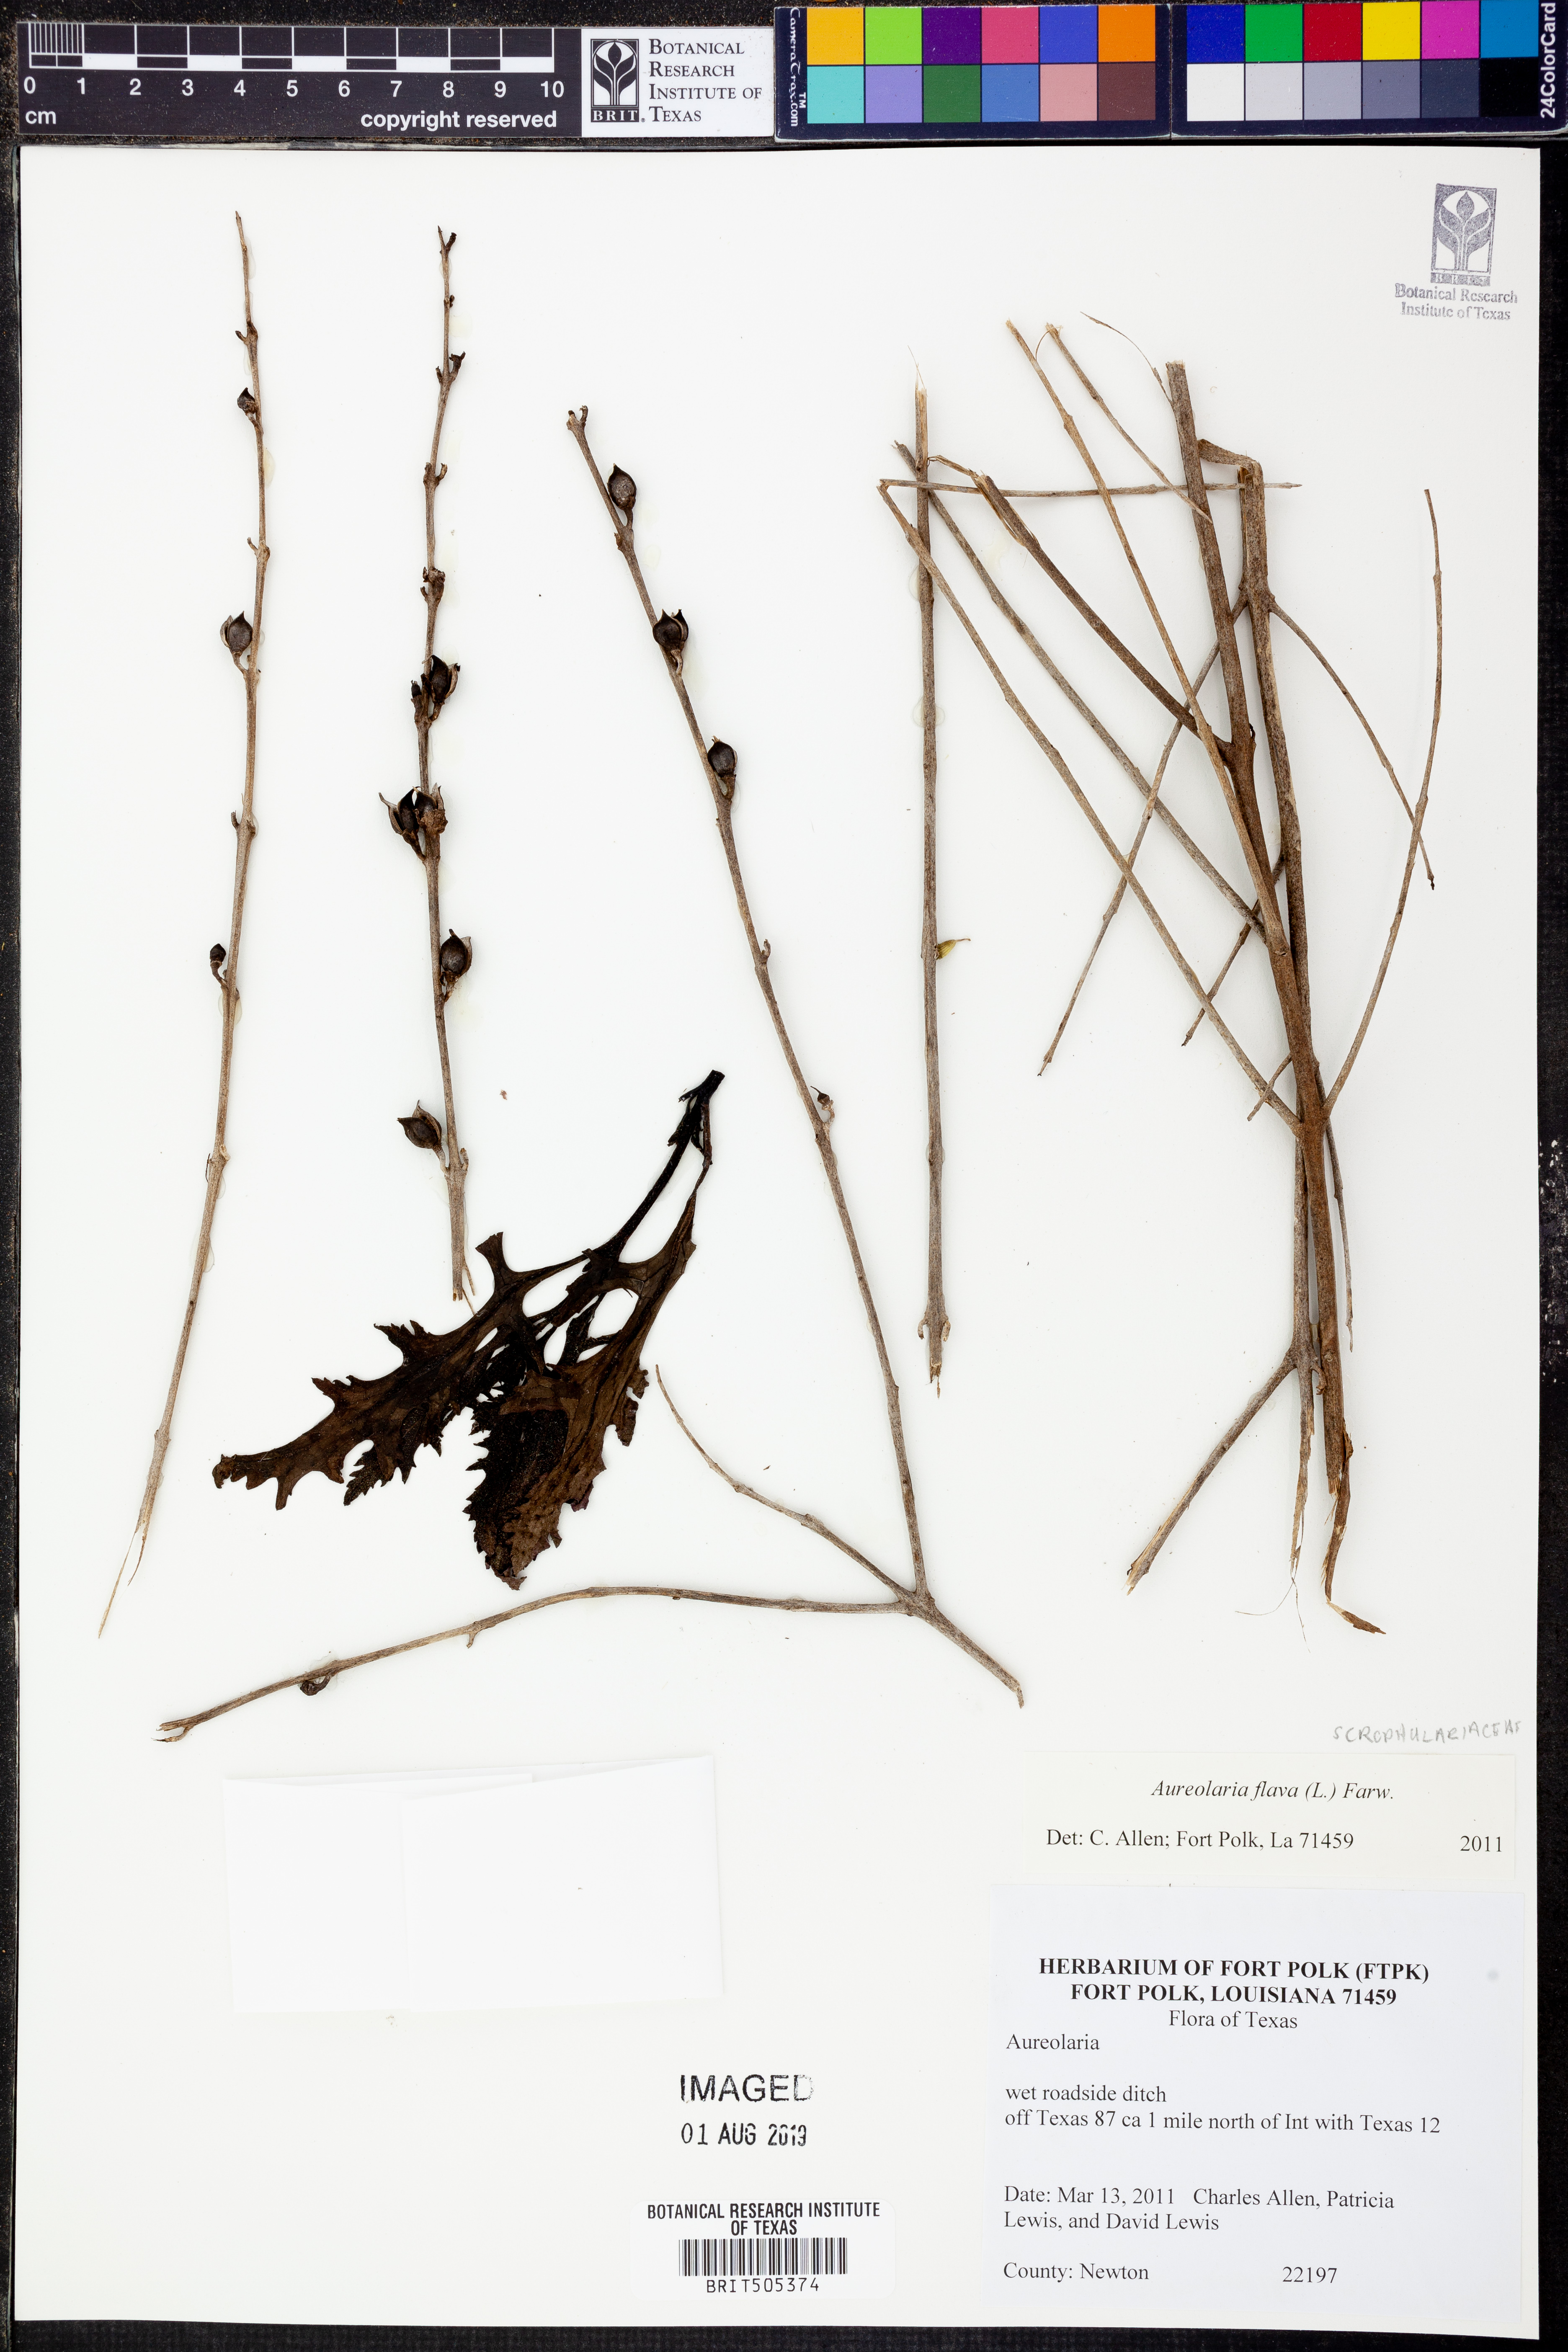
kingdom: Plantae
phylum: Tracheophyta
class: Magnoliopsida
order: Lamiales
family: Orobanchaceae
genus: Aureolaria
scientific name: Aureolaria flava
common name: Smooth false foxglove
